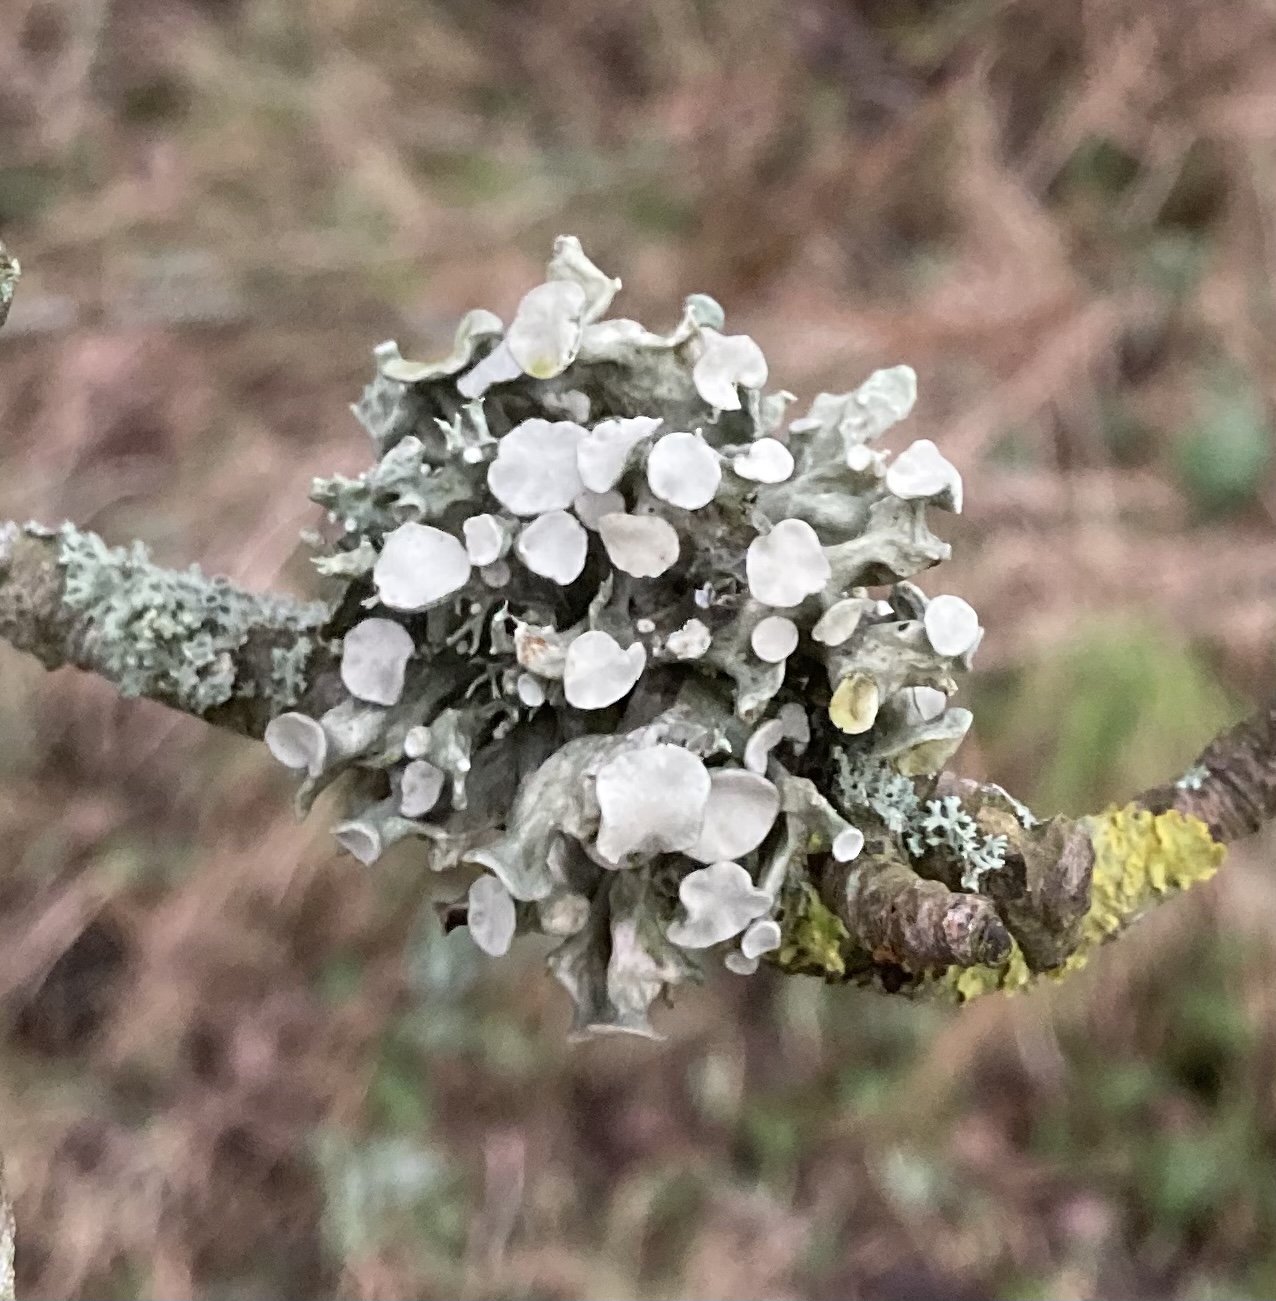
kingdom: Fungi
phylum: Ascomycota
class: Lecanoromycetes
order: Lecanorales
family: Ramalinaceae
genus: Ramalina
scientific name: Ramalina fastigiata
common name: tue-grenlav
